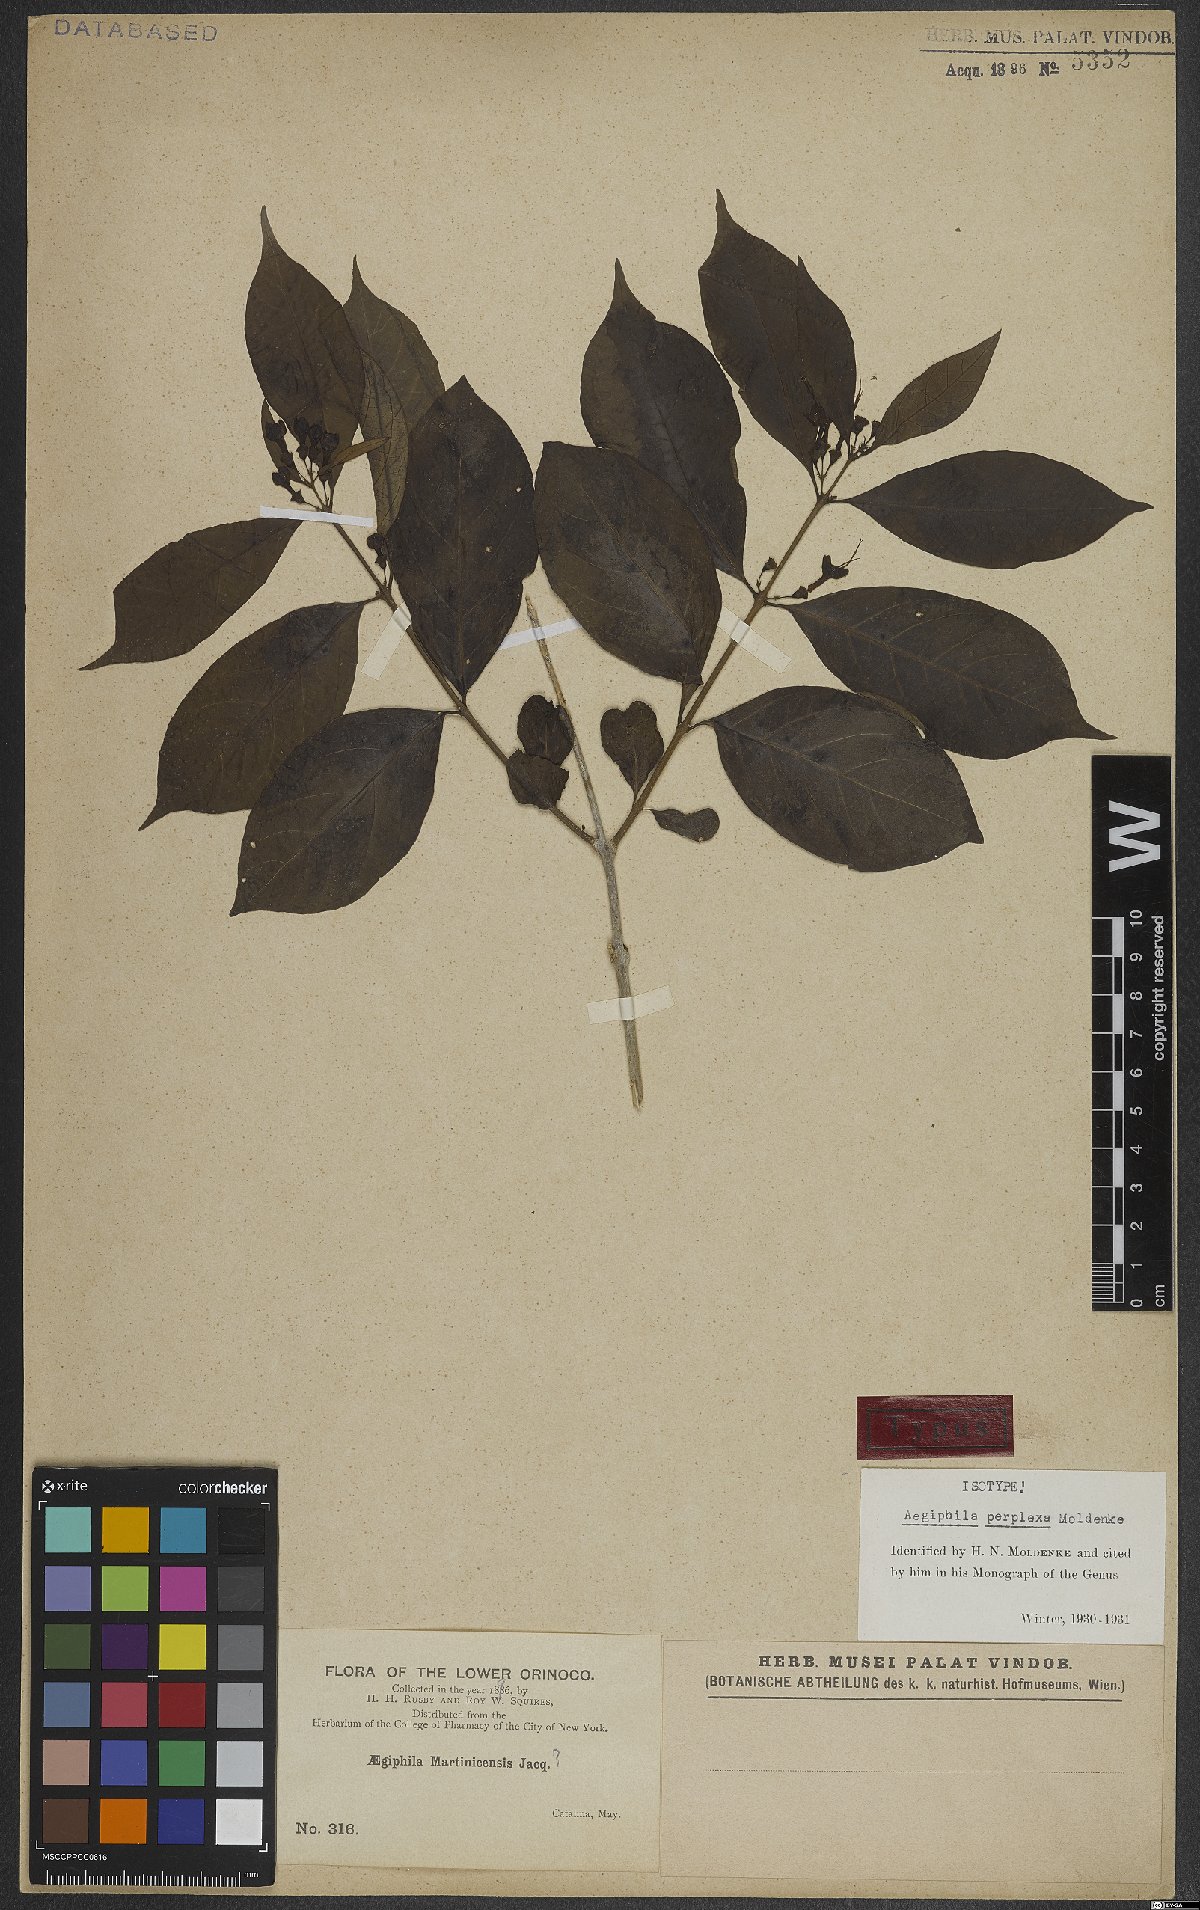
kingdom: Plantae
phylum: Tracheophyta
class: Magnoliopsida
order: Lamiales
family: Lamiaceae
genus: Aegiphila
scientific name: Aegiphila perplexa
